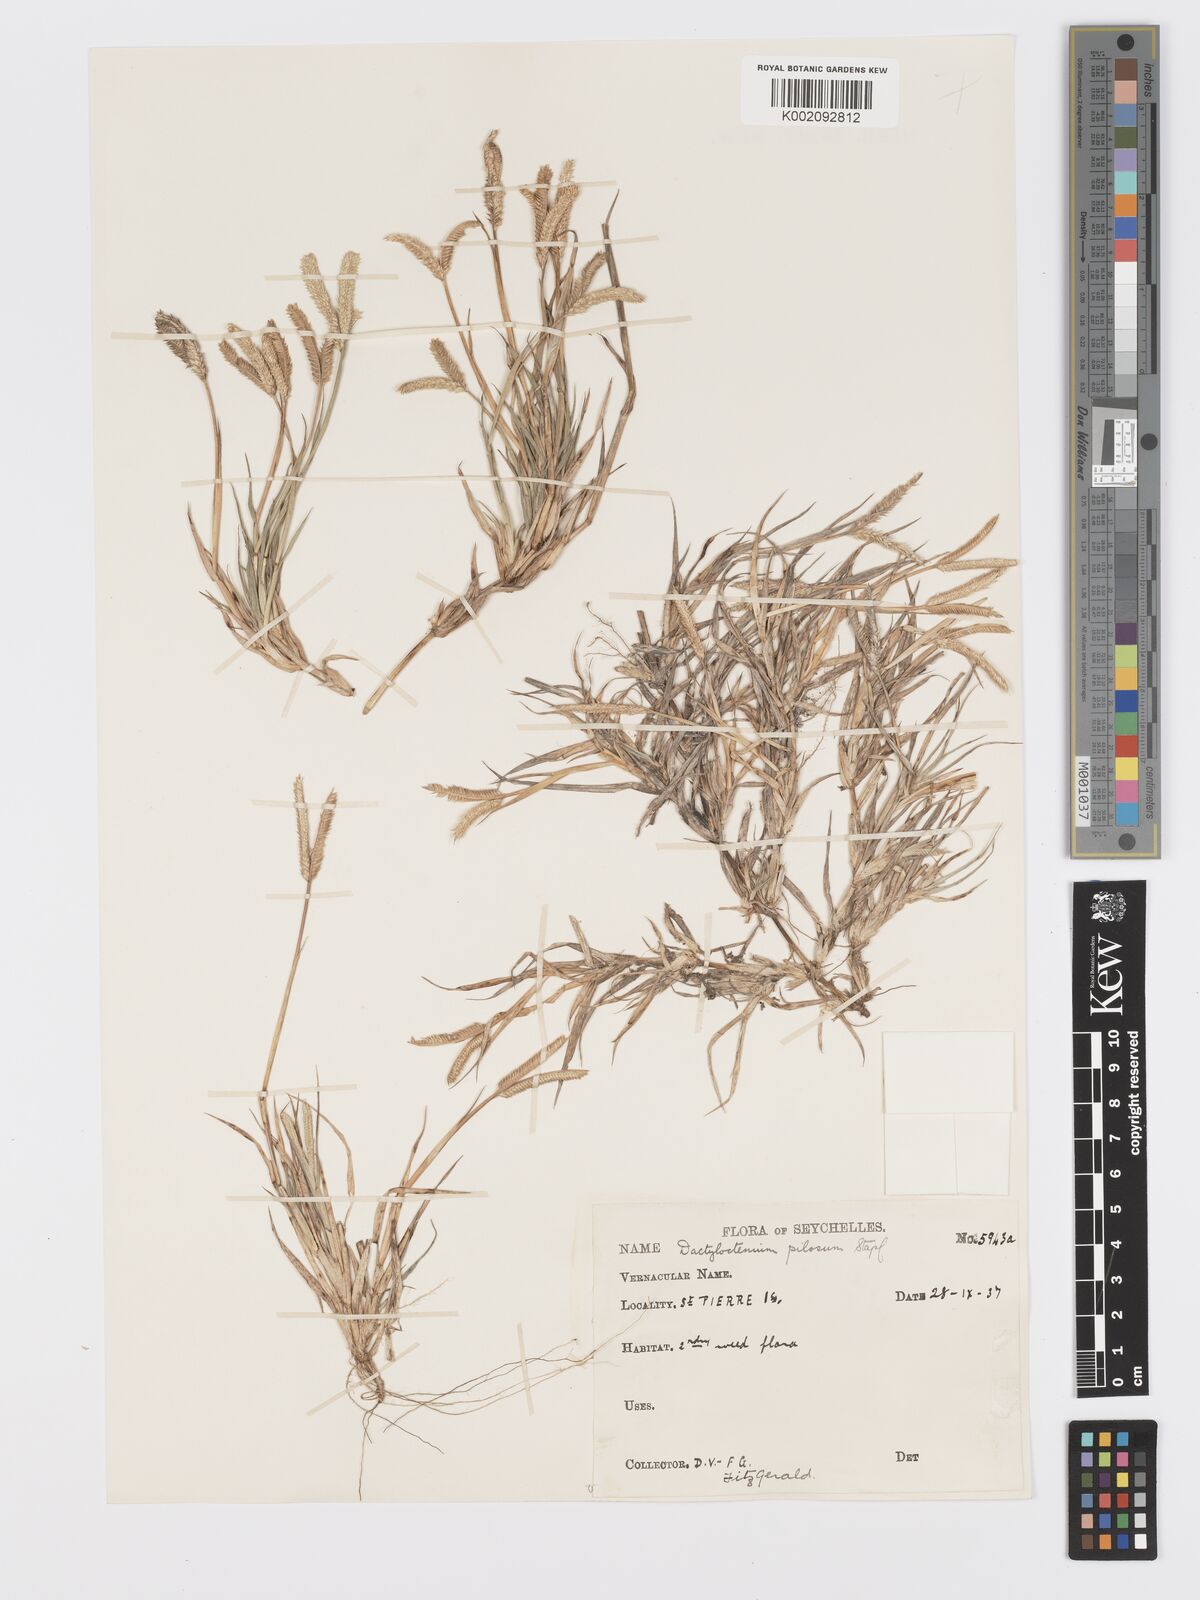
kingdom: Plantae
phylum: Tracheophyta
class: Liliopsida
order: Poales
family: Poaceae
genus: Dactyloctenium
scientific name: Dactyloctenium pilosum
